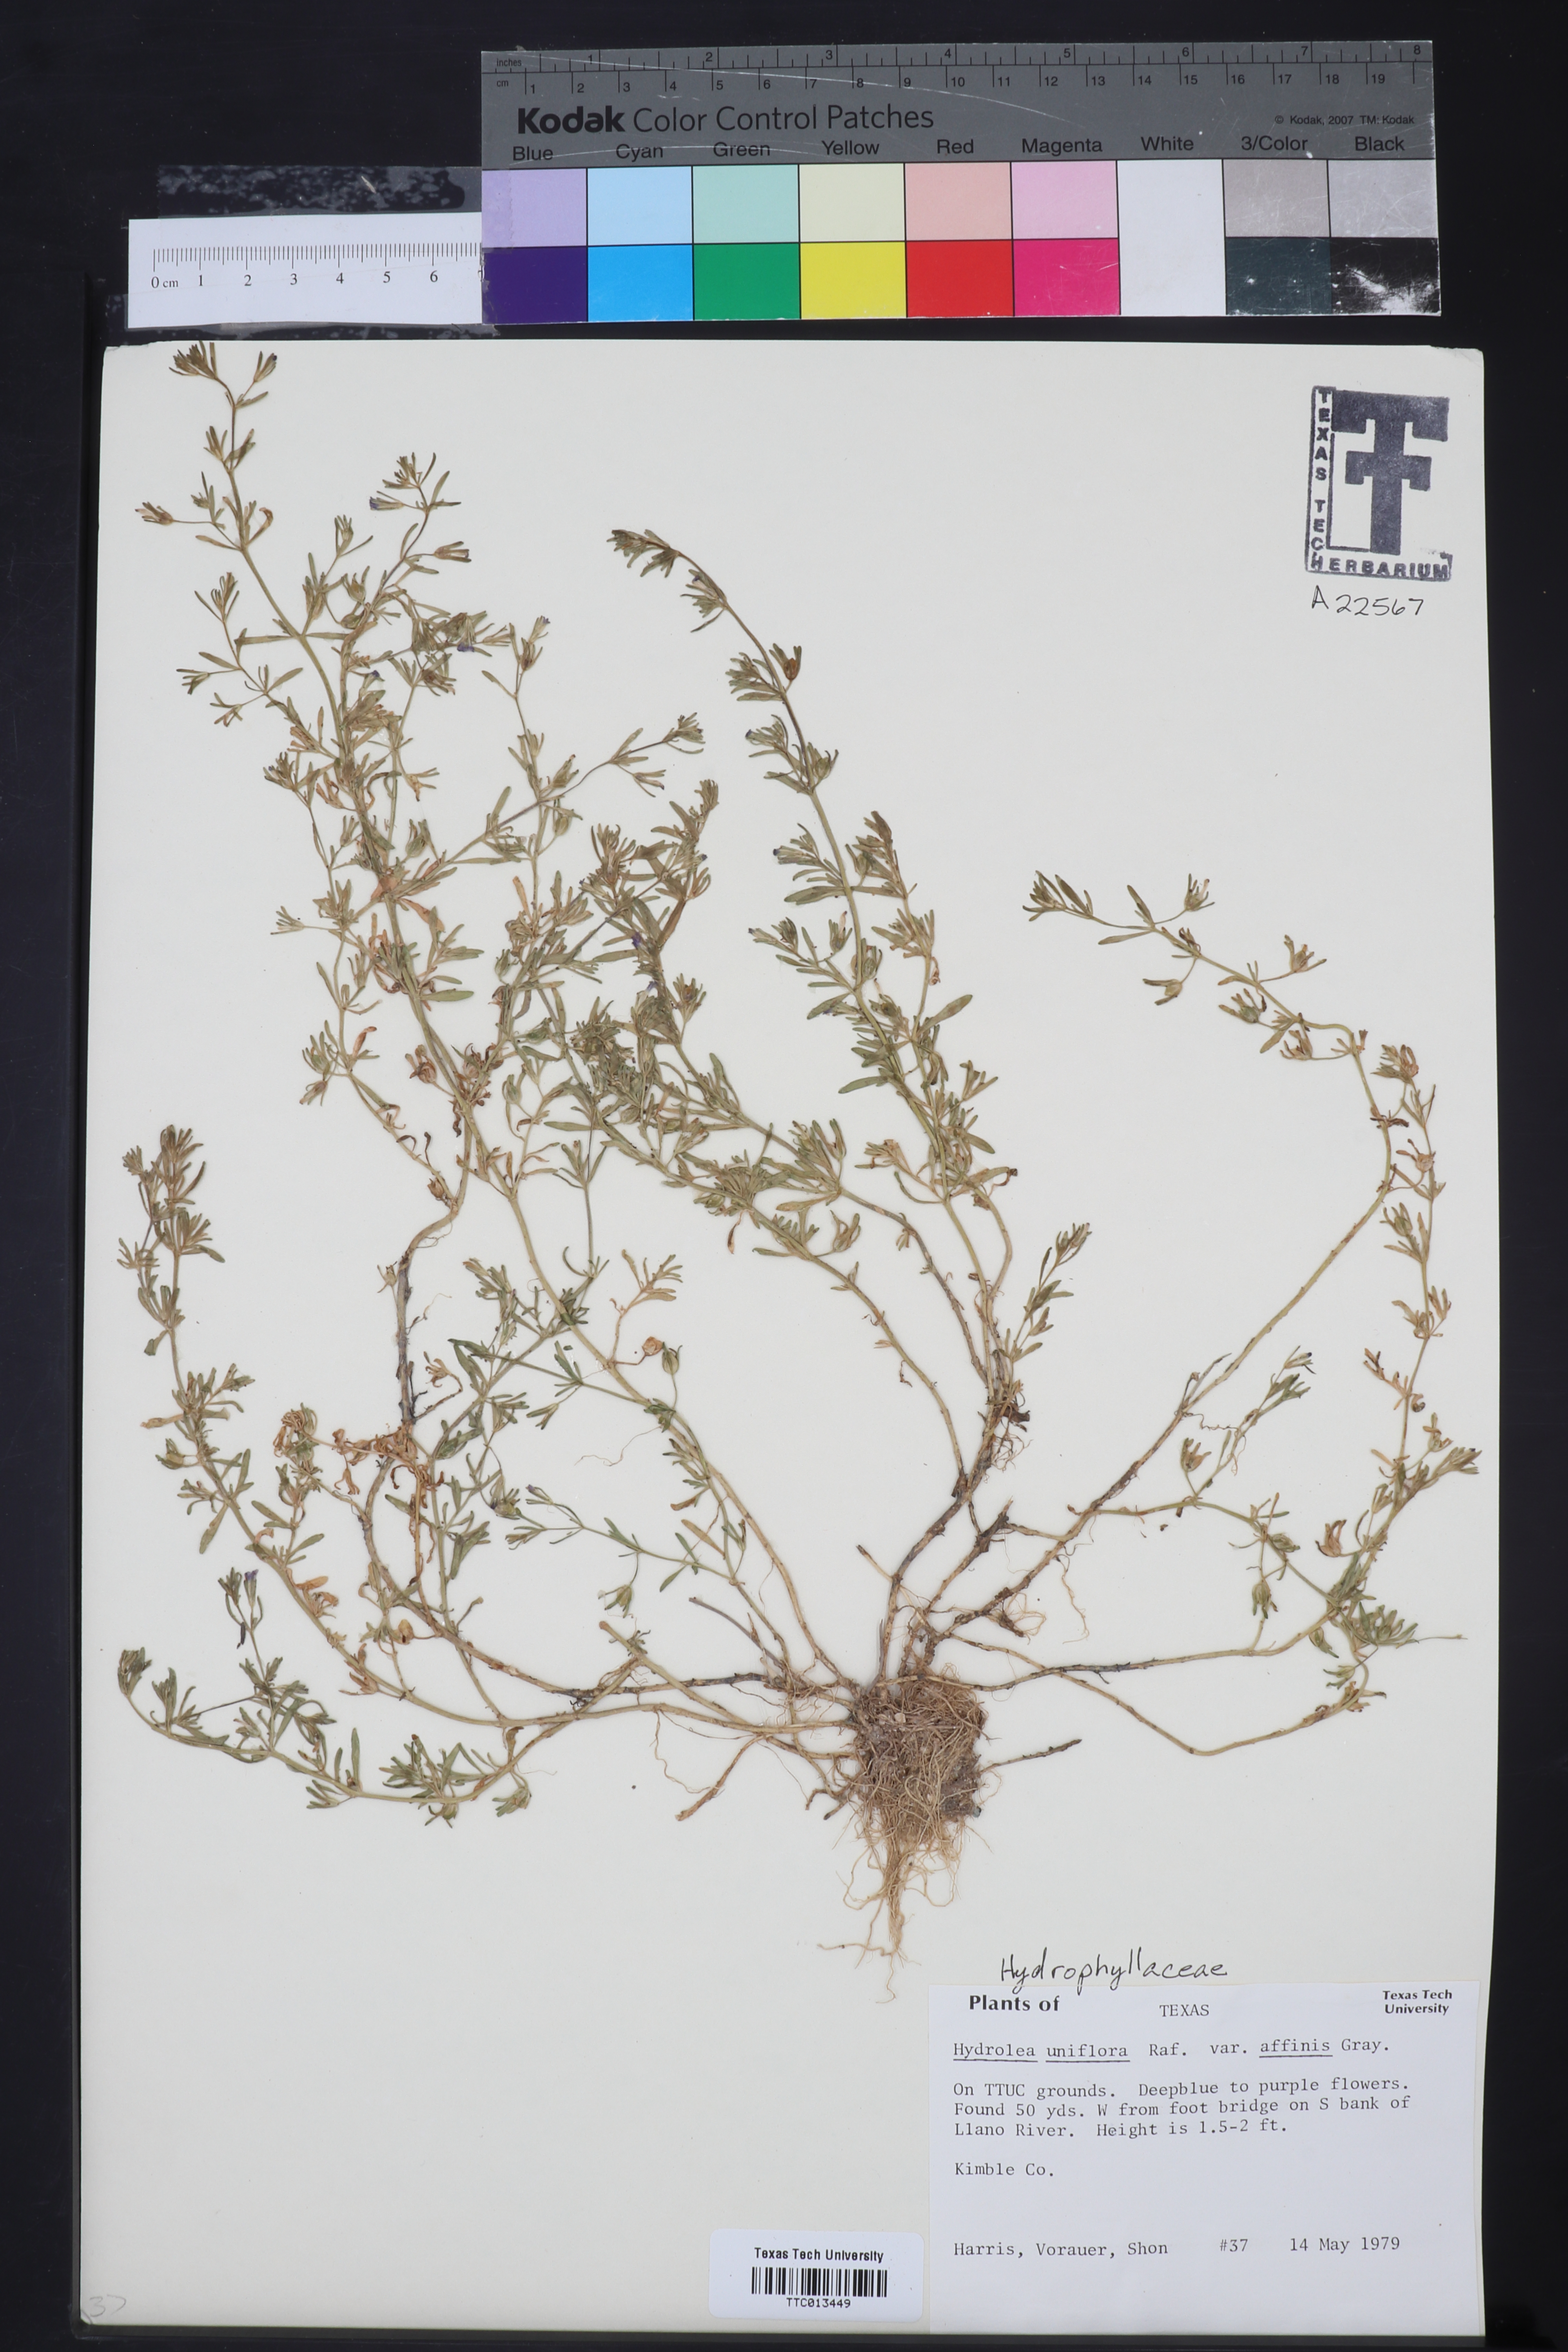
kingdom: Plantae
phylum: Tracheophyta
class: Magnoliopsida
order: Solanales
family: Hydroleaceae
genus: Hydrolea
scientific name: Hydrolea uniflora
